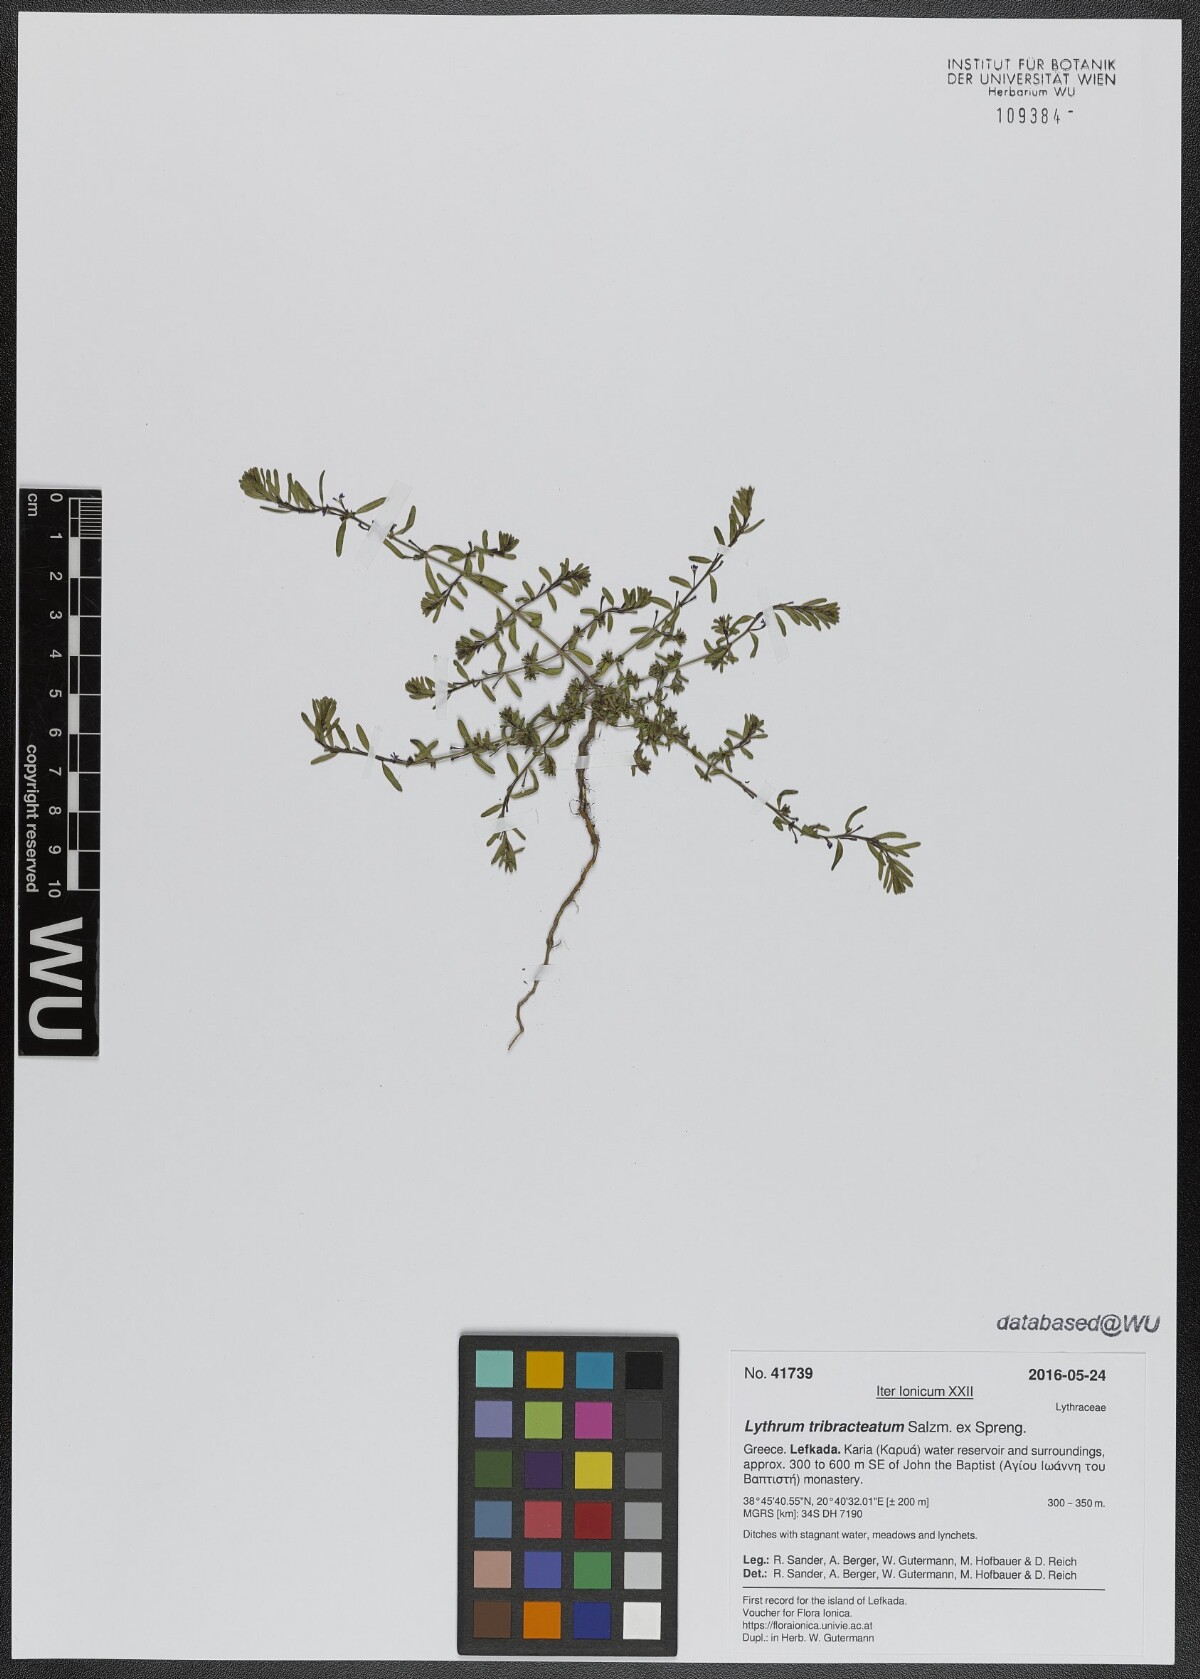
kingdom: Plantae
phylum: Tracheophyta
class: Magnoliopsida
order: Myrtales
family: Lythraceae
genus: Lythrum
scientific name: Lythrum tribracteatum
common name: Threebract loosestrife
